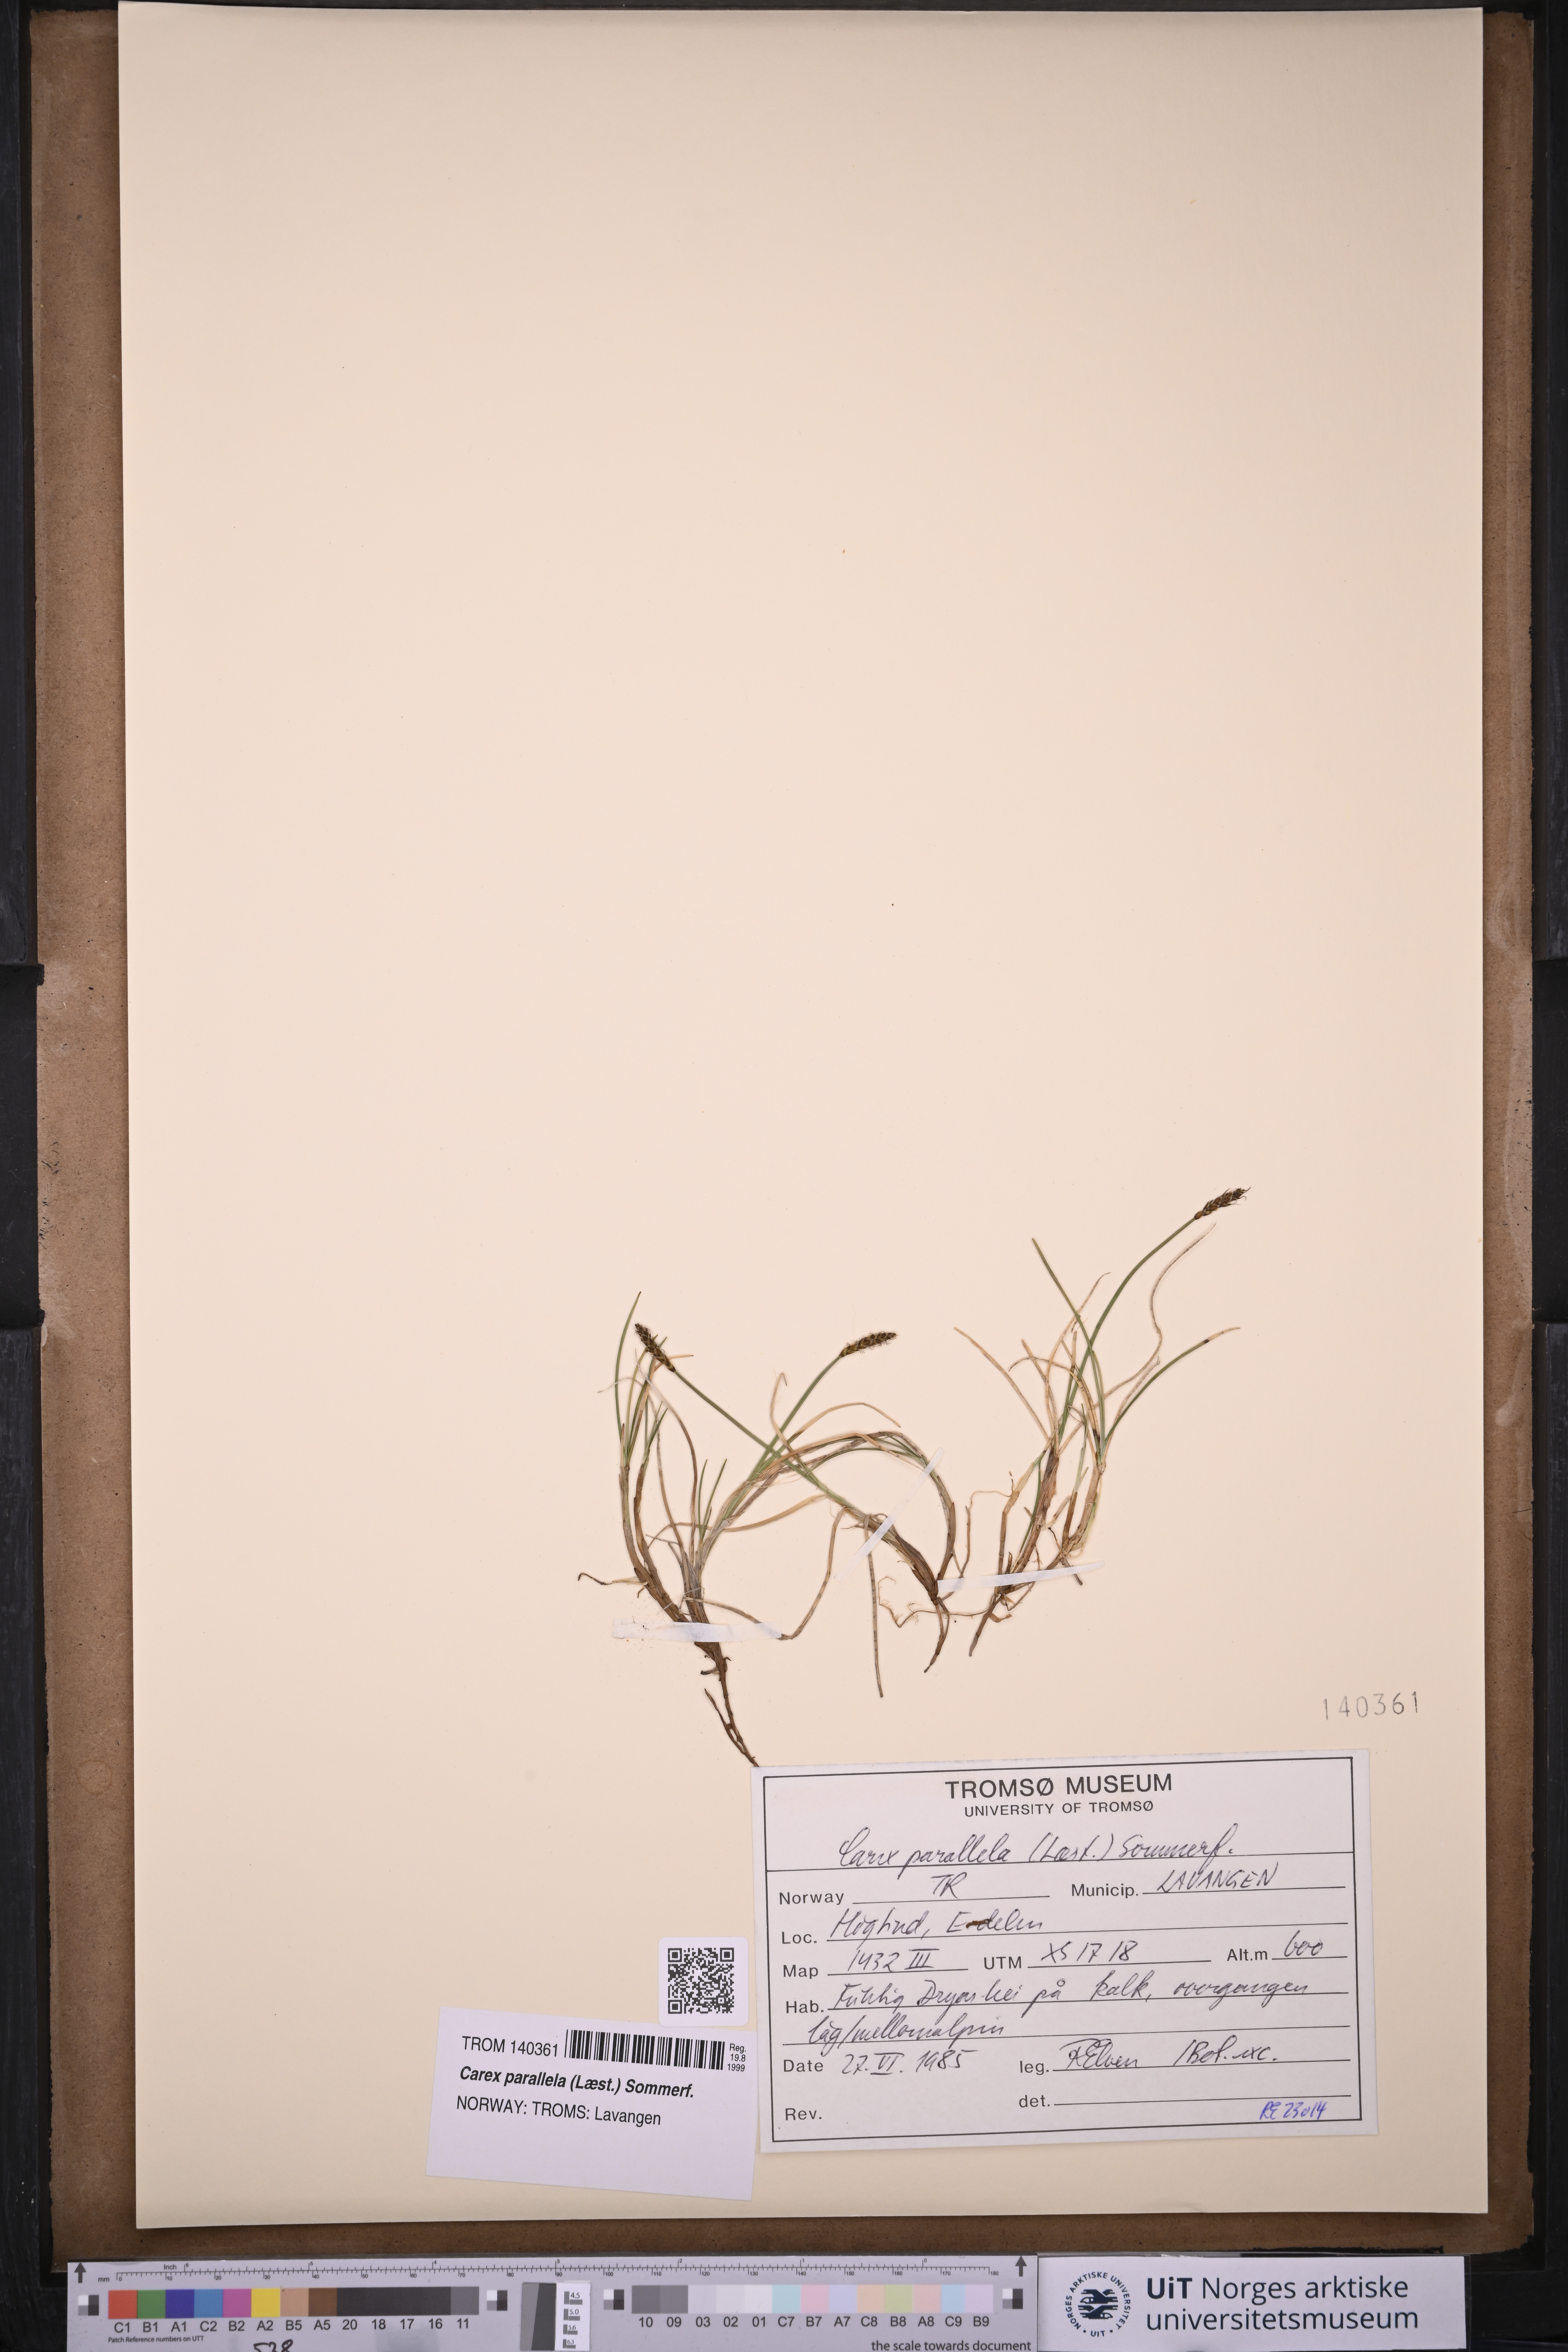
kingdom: Plantae
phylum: Tracheophyta
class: Liliopsida
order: Poales
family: Cyperaceae
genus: Carex
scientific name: Carex parallela
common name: Parallel sedge
